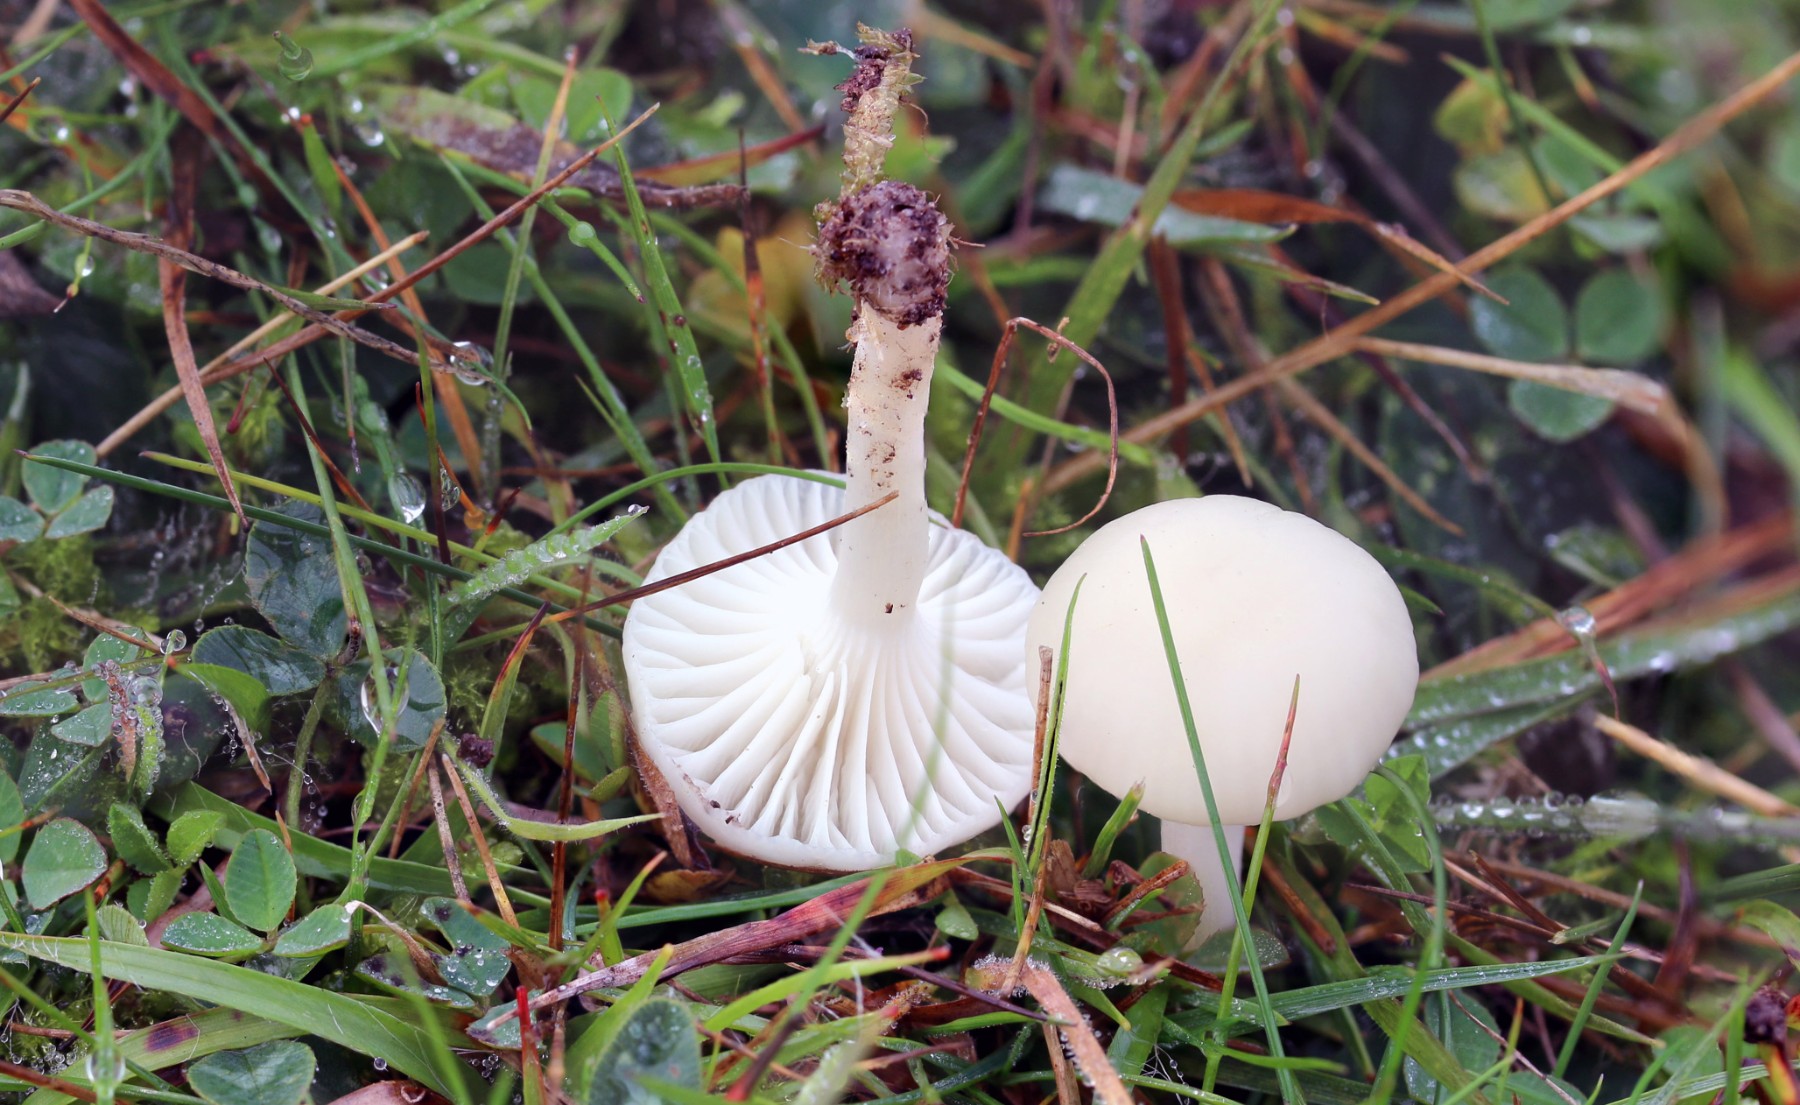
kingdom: Fungi
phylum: Basidiomycota
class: Agaricomycetes
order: Agaricales
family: Hygrophoraceae
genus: Cuphophyllus
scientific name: Cuphophyllus virgineus
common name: snehvid vokshat
